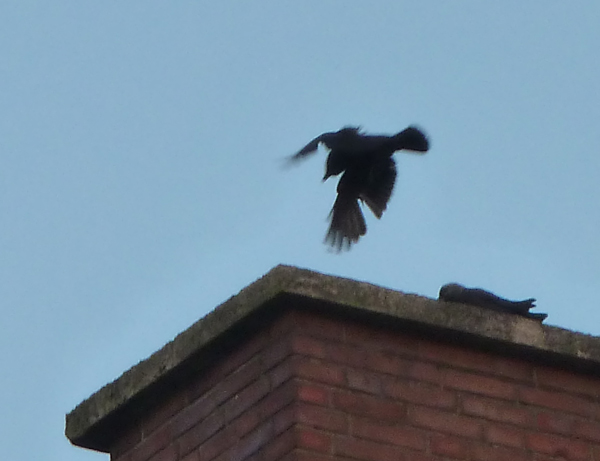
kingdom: Animalia
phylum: Chordata
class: Aves
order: Passeriformes
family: Corvidae
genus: Coloeus
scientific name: Coloeus monedula
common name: Western jackdaw
